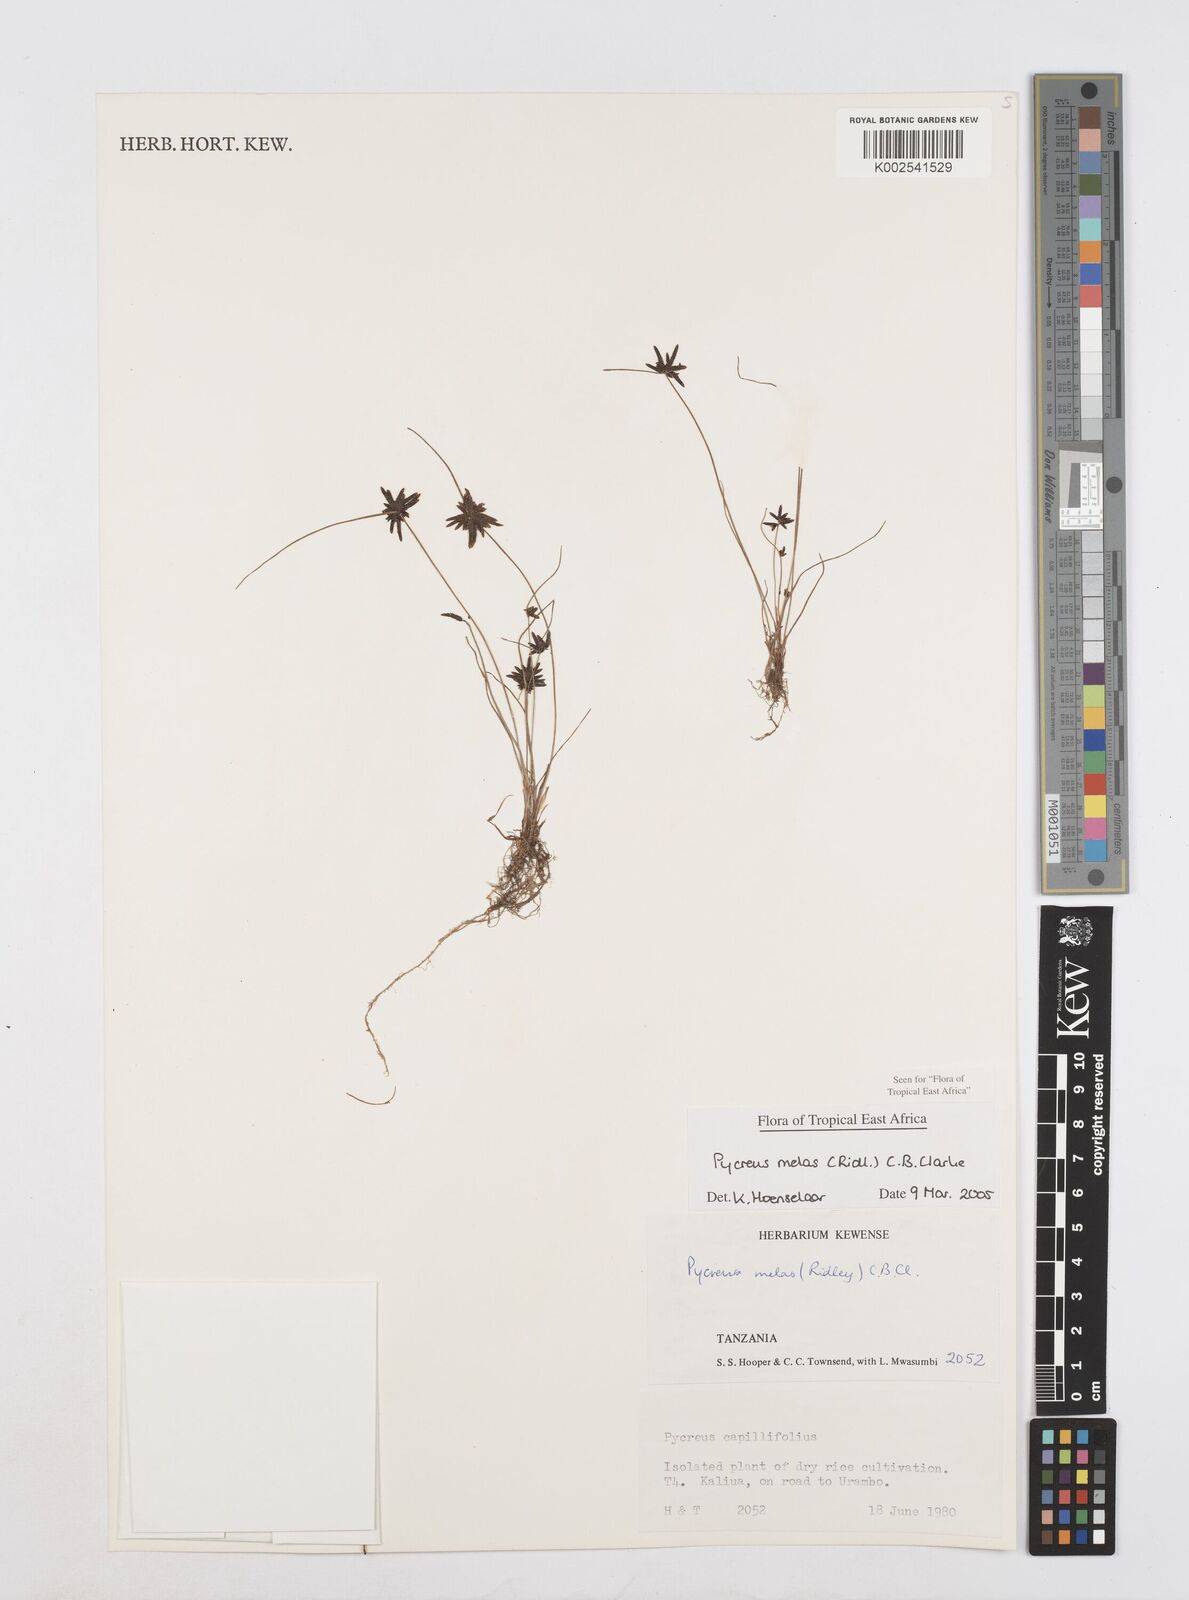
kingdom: Plantae
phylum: Tracheophyta
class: Liliopsida
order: Poales
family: Cyperaceae
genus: Cyperus
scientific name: Cyperus melas
